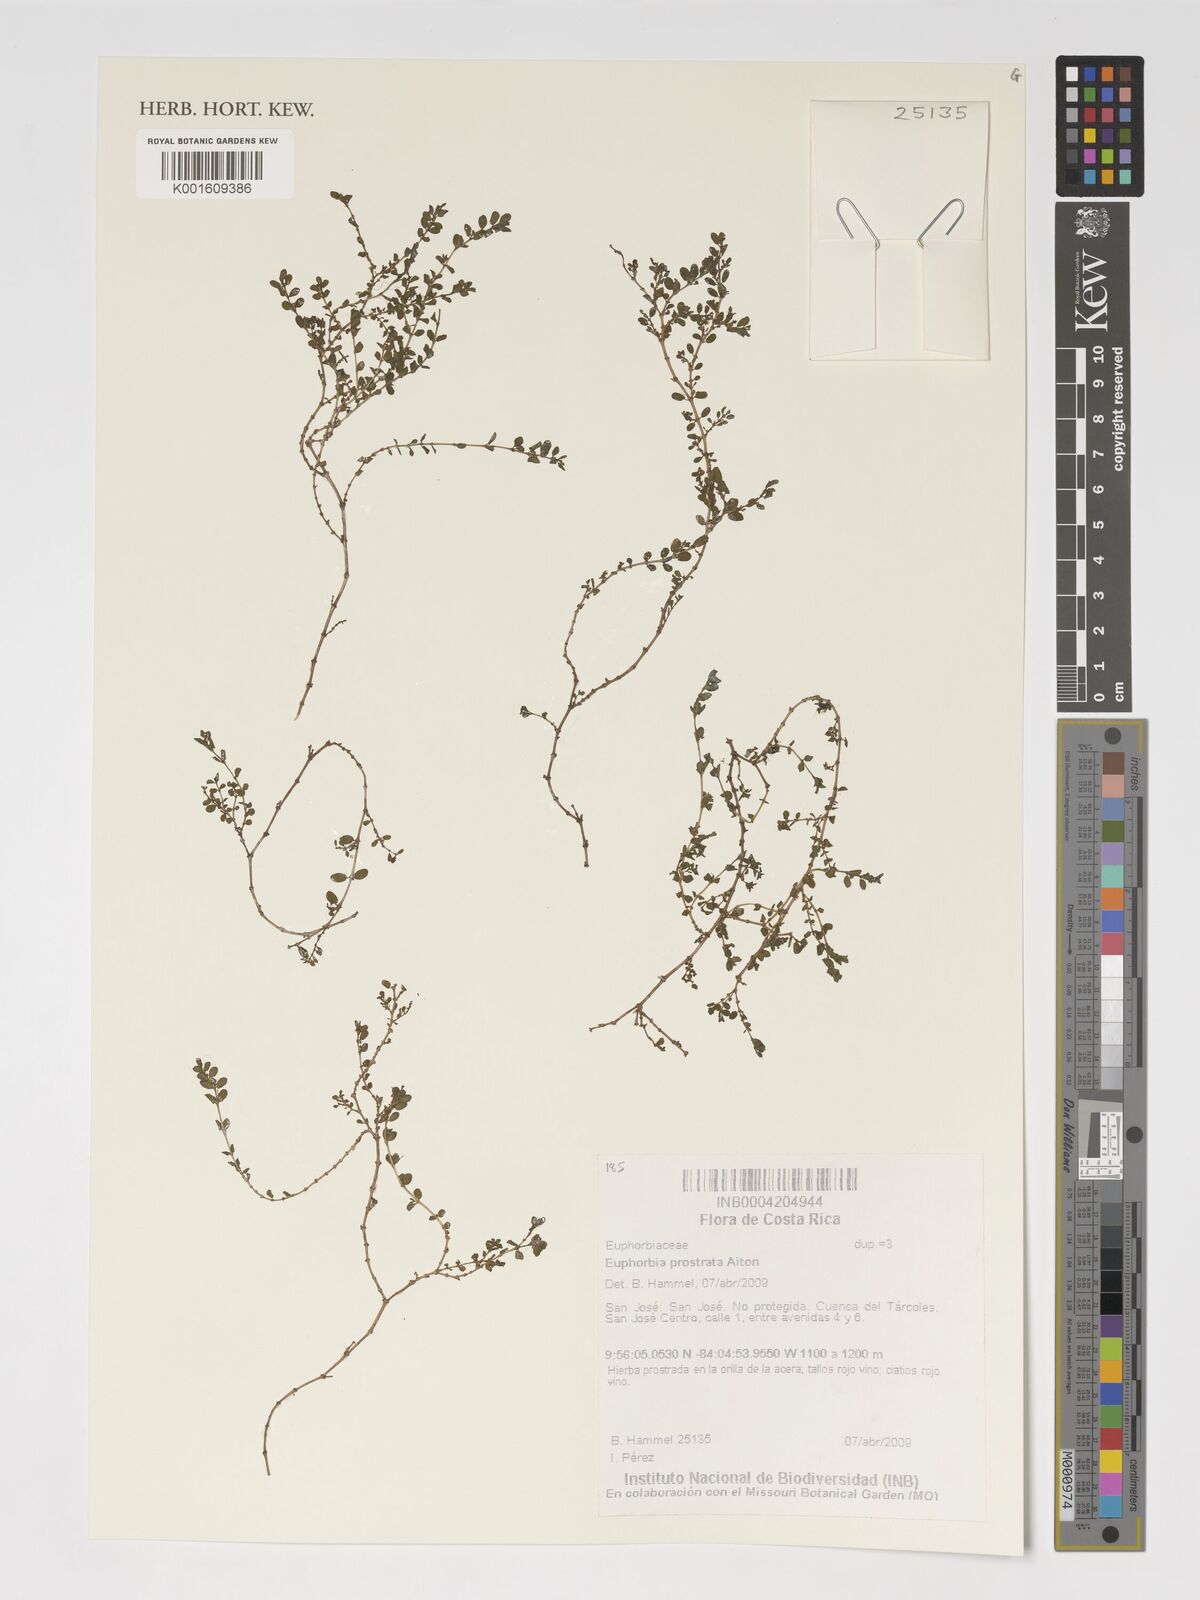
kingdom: Plantae
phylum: Tracheophyta
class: Magnoliopsida
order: Malpighiales
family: Euphorbiaceae
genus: Euphorbia
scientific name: Euphorbia prostrata
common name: Prostrate sandmat
